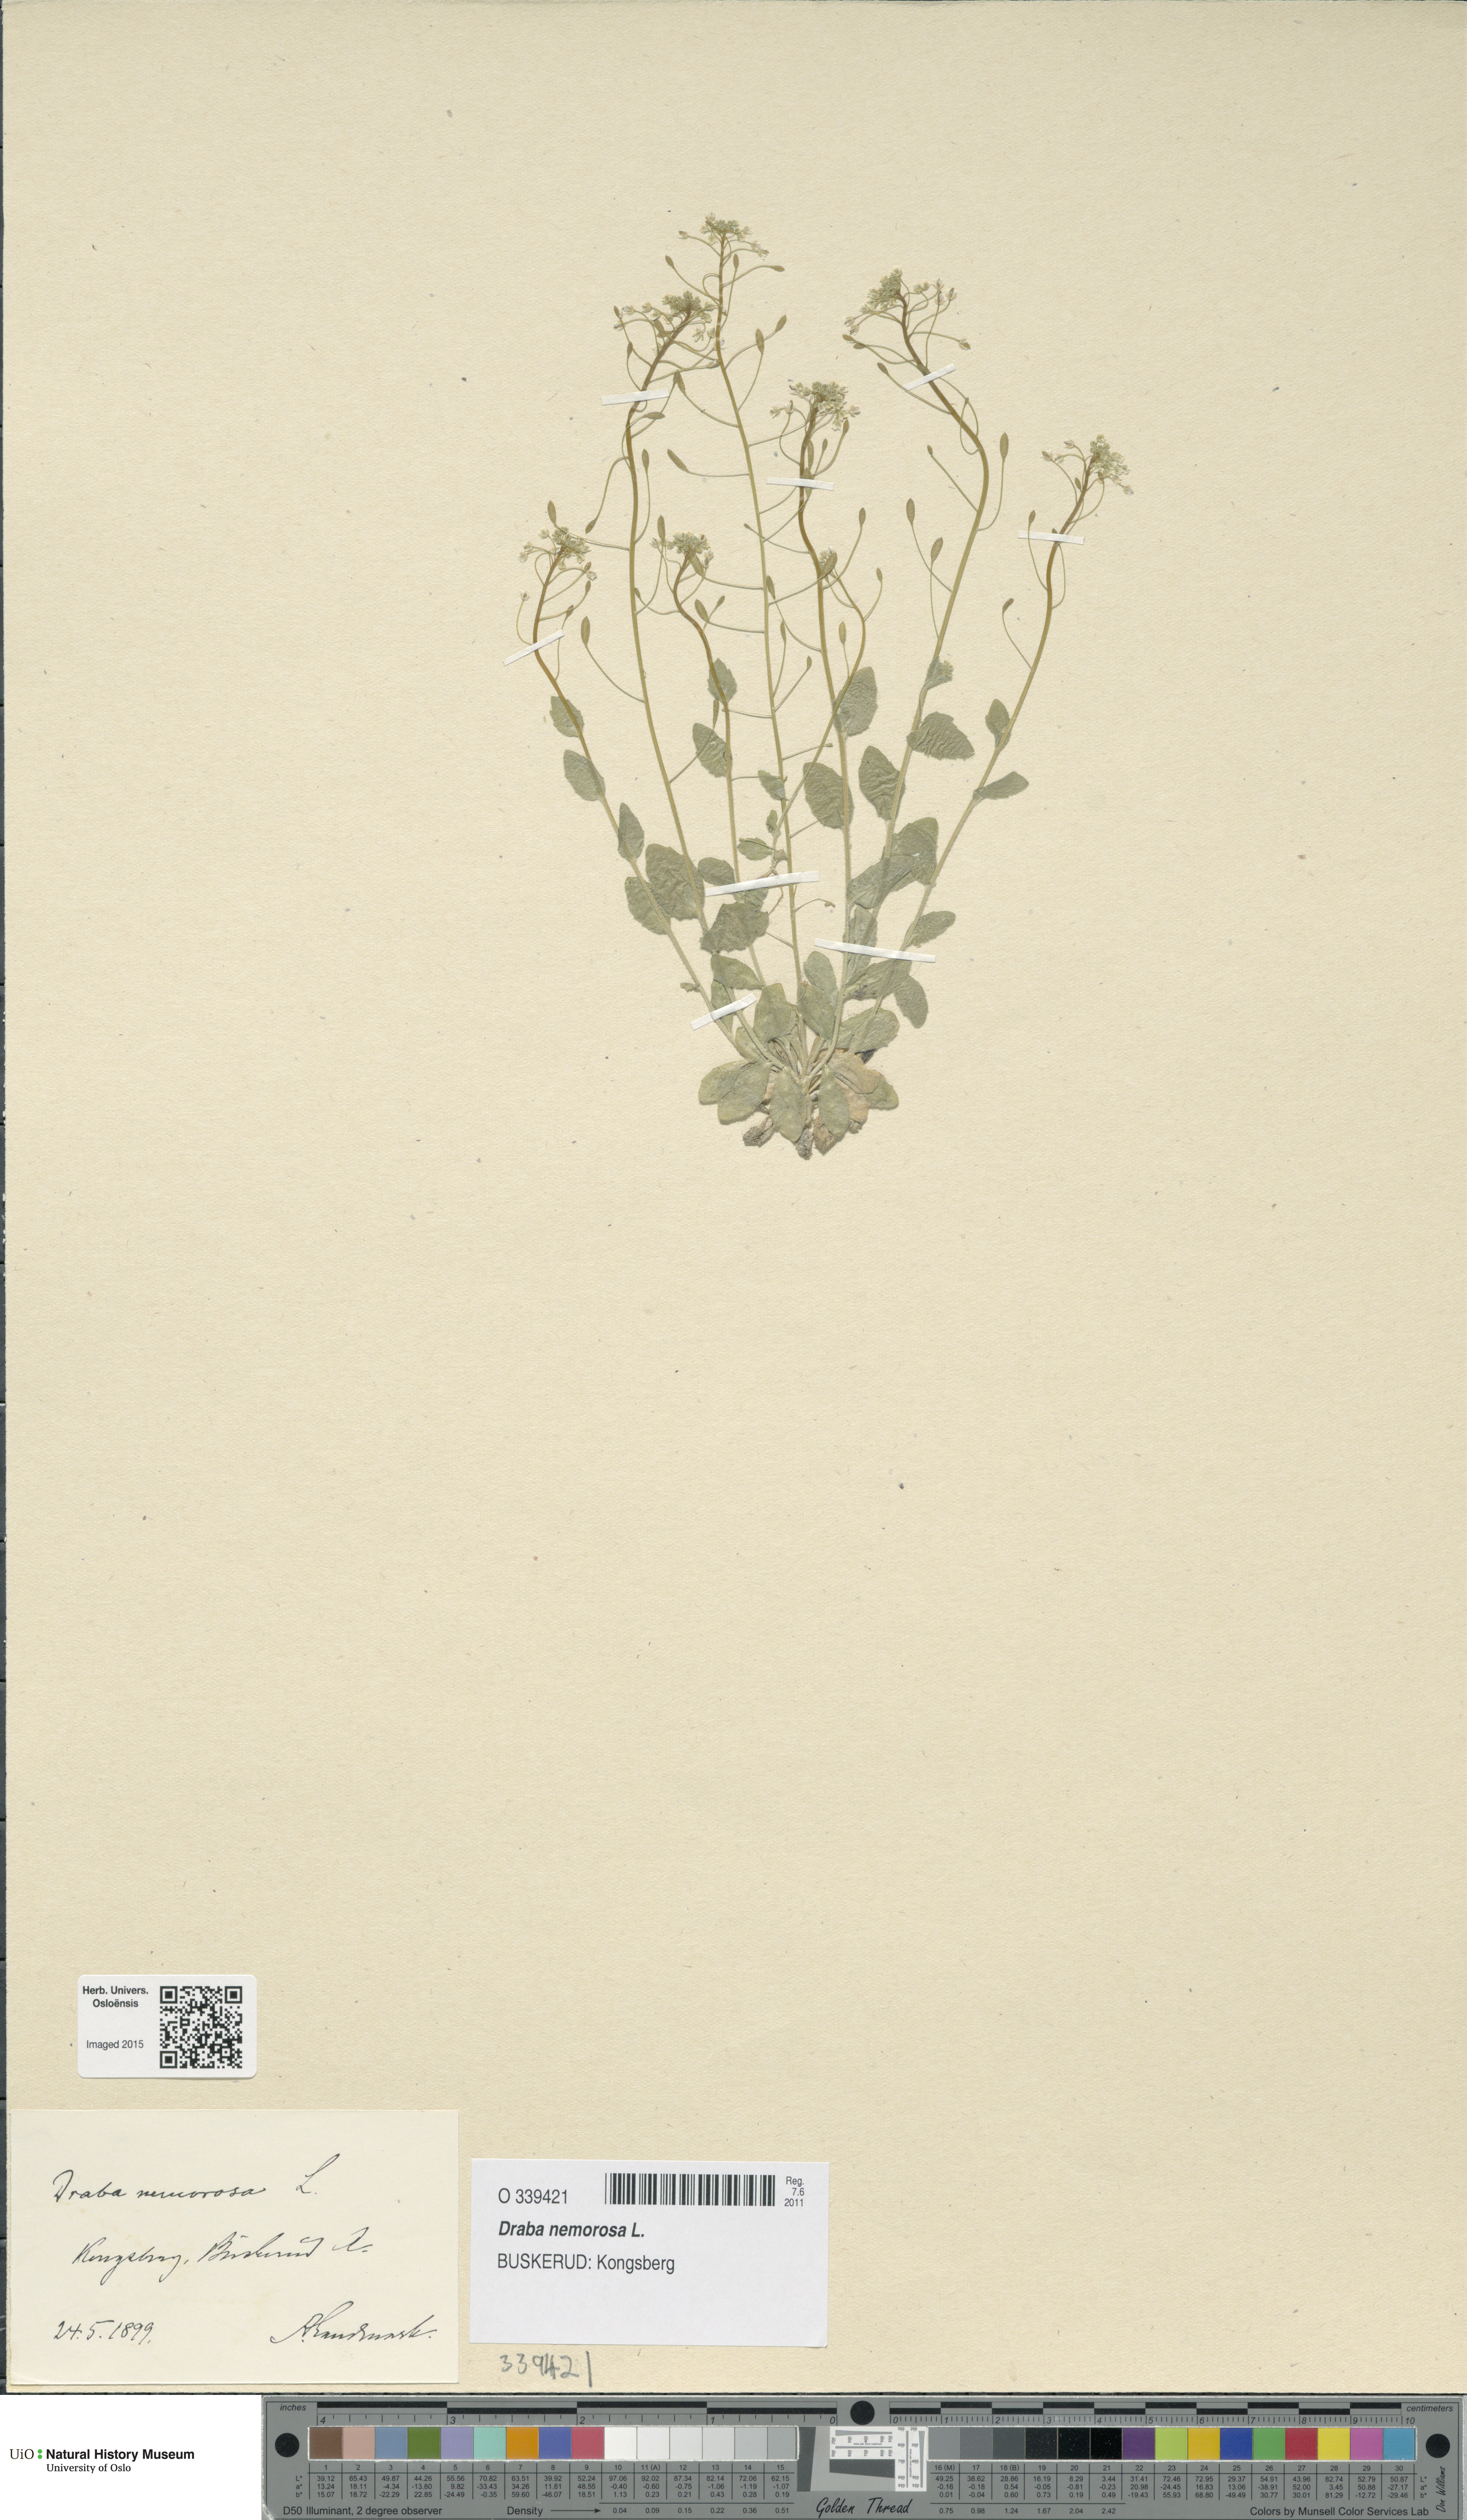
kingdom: Plantae
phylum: Tracheophyta
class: Magnoliopsida
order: Brassicales
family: Brassicaceae
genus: Draba
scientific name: Draba nemorosa
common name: Wood whitlow-grass
